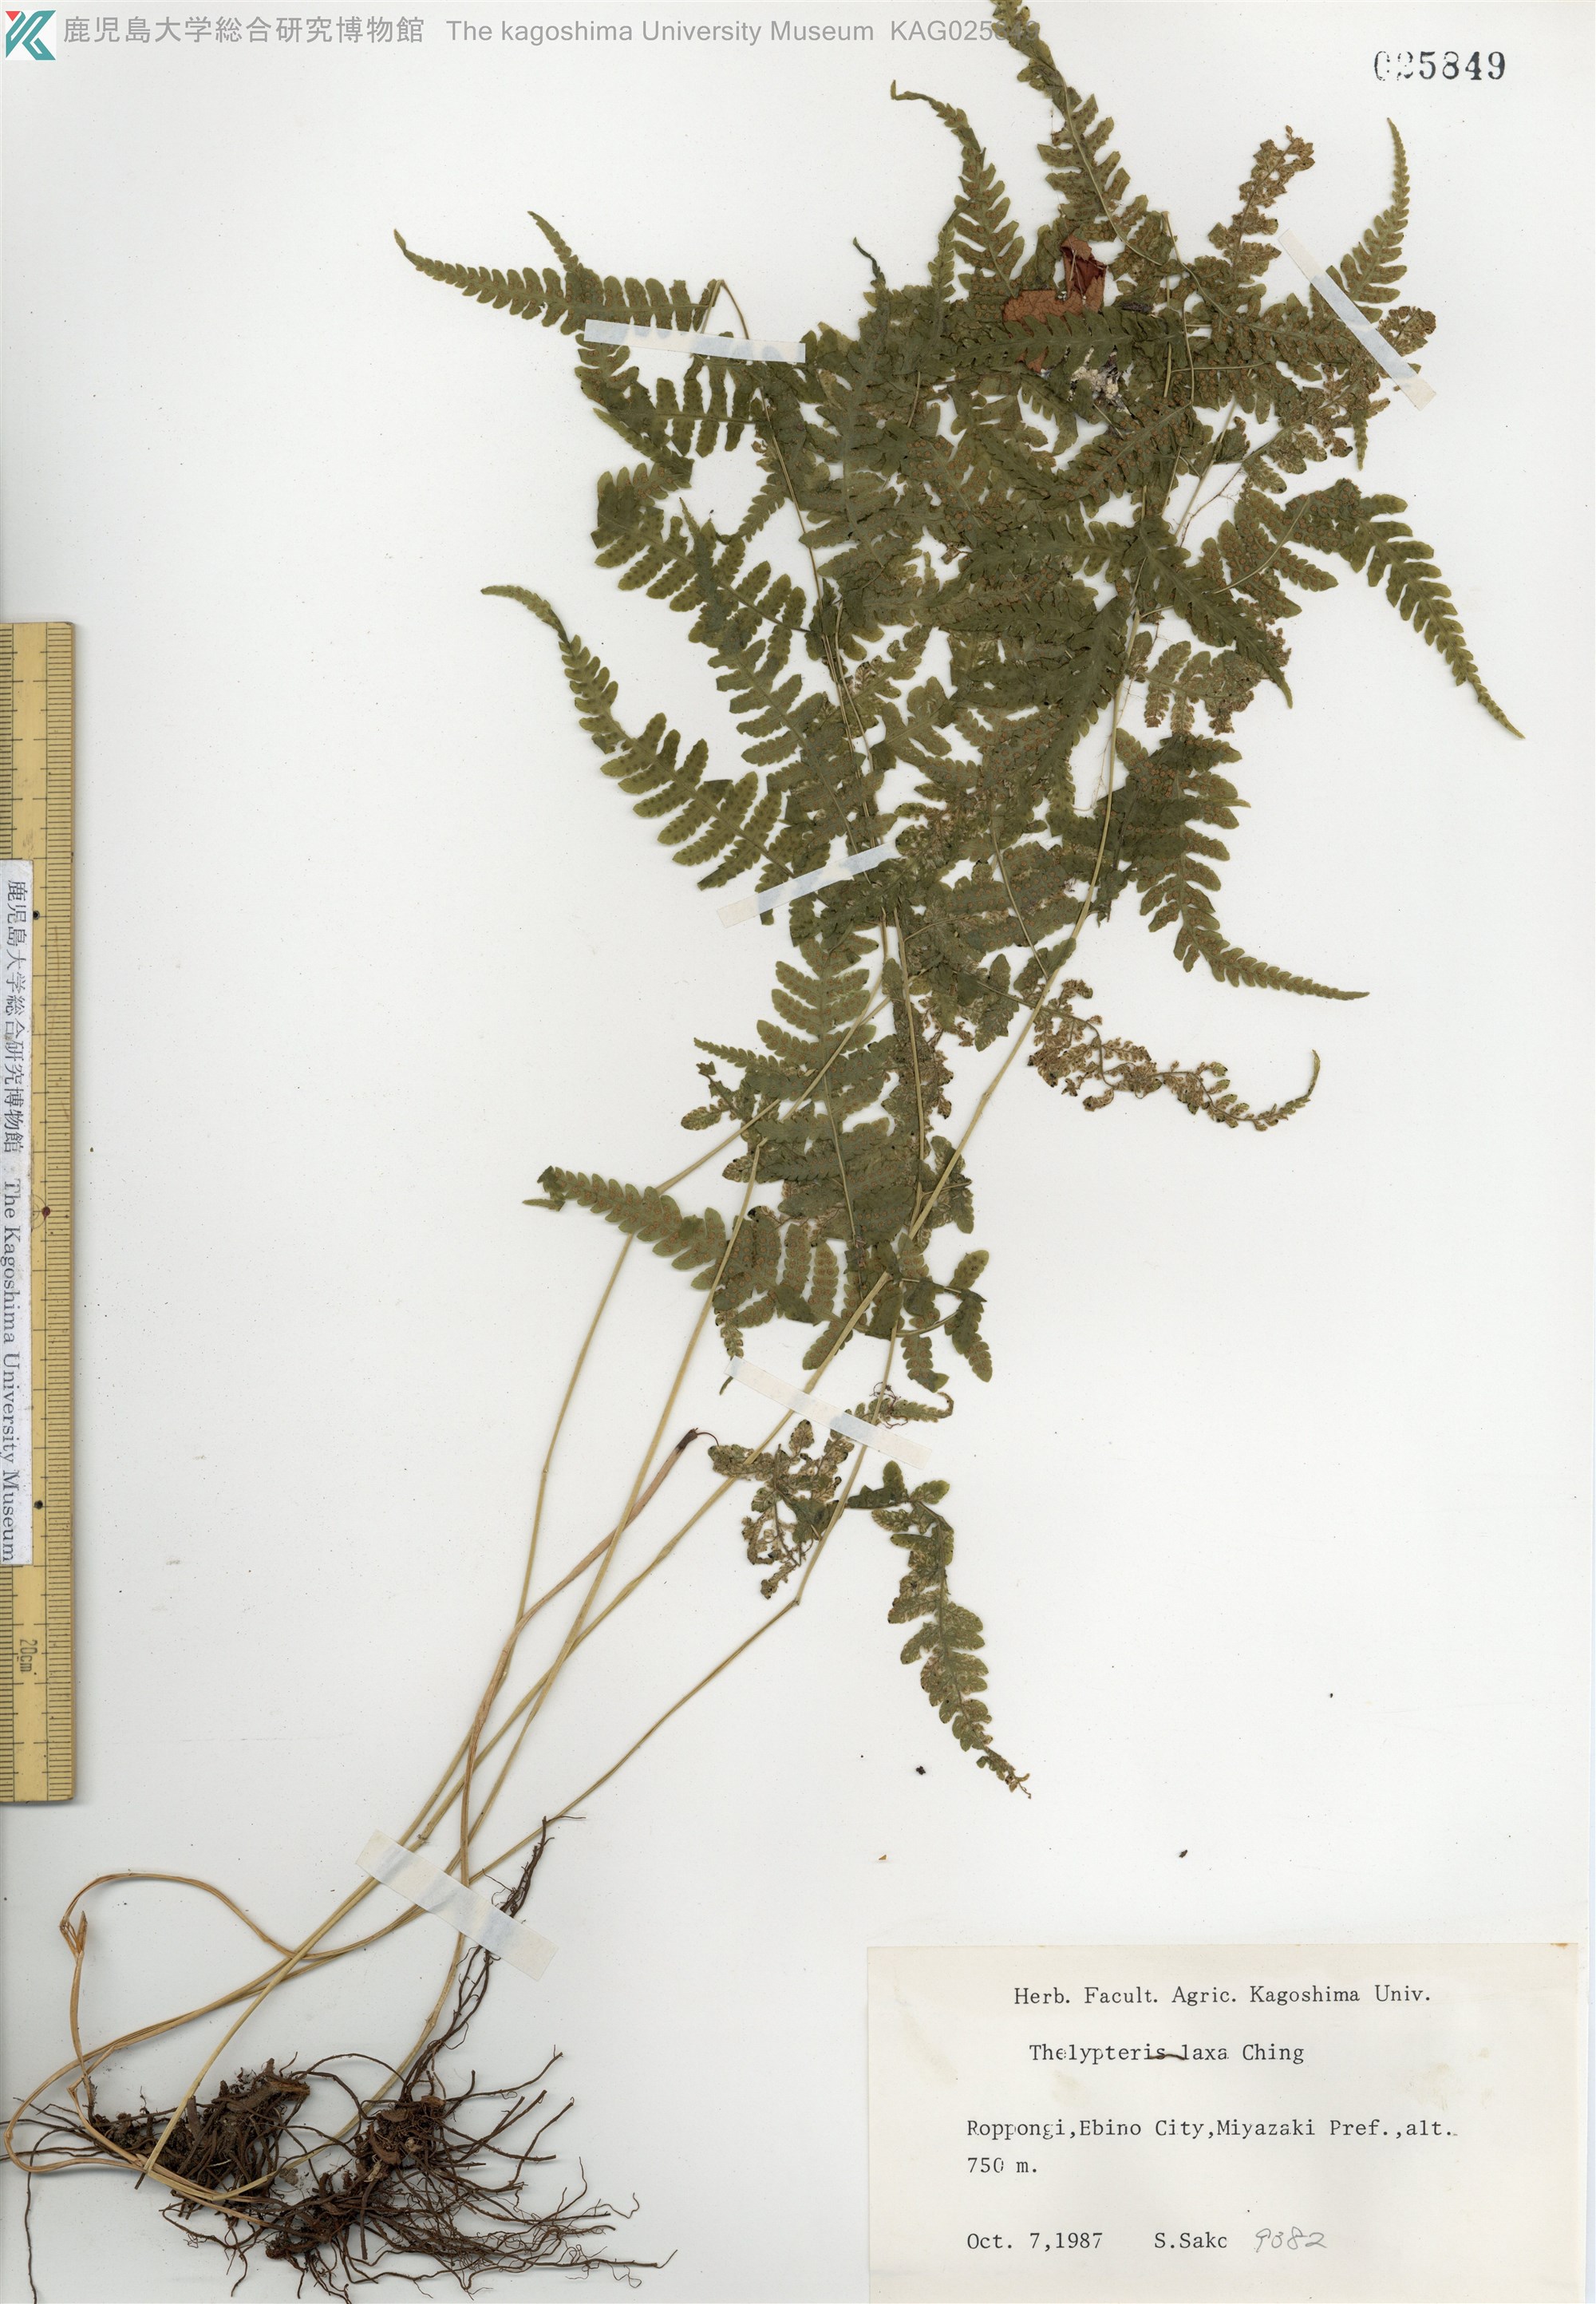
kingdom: Plantae
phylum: Tracheophyta
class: Polypodiopsida
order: Polypodiales
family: Thelypteridaceae
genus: Metathelypteris
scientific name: Metathelypteris laxa
